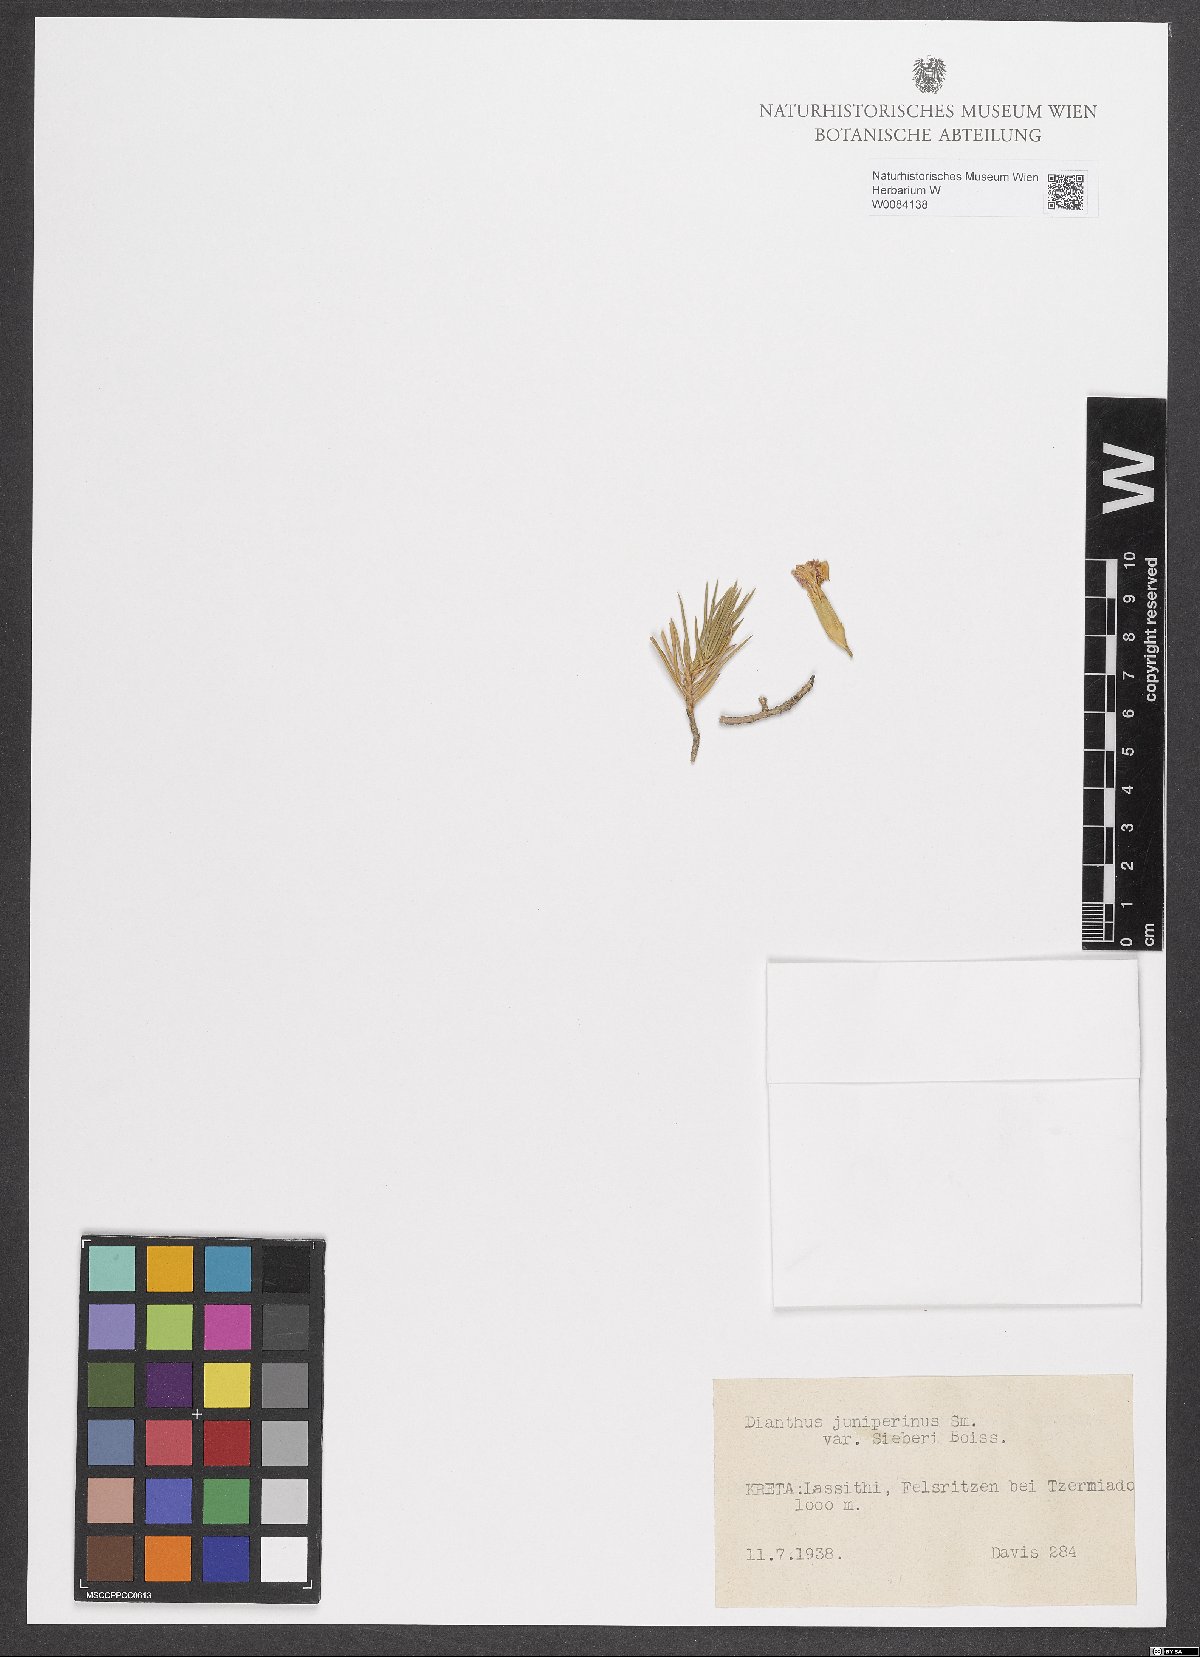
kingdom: Plantae
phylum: Tracheophyta
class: Magnoliopsida
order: Caryophyllales
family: Caryophyllaceae
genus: Dianthus
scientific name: Dianthus juniperinus
